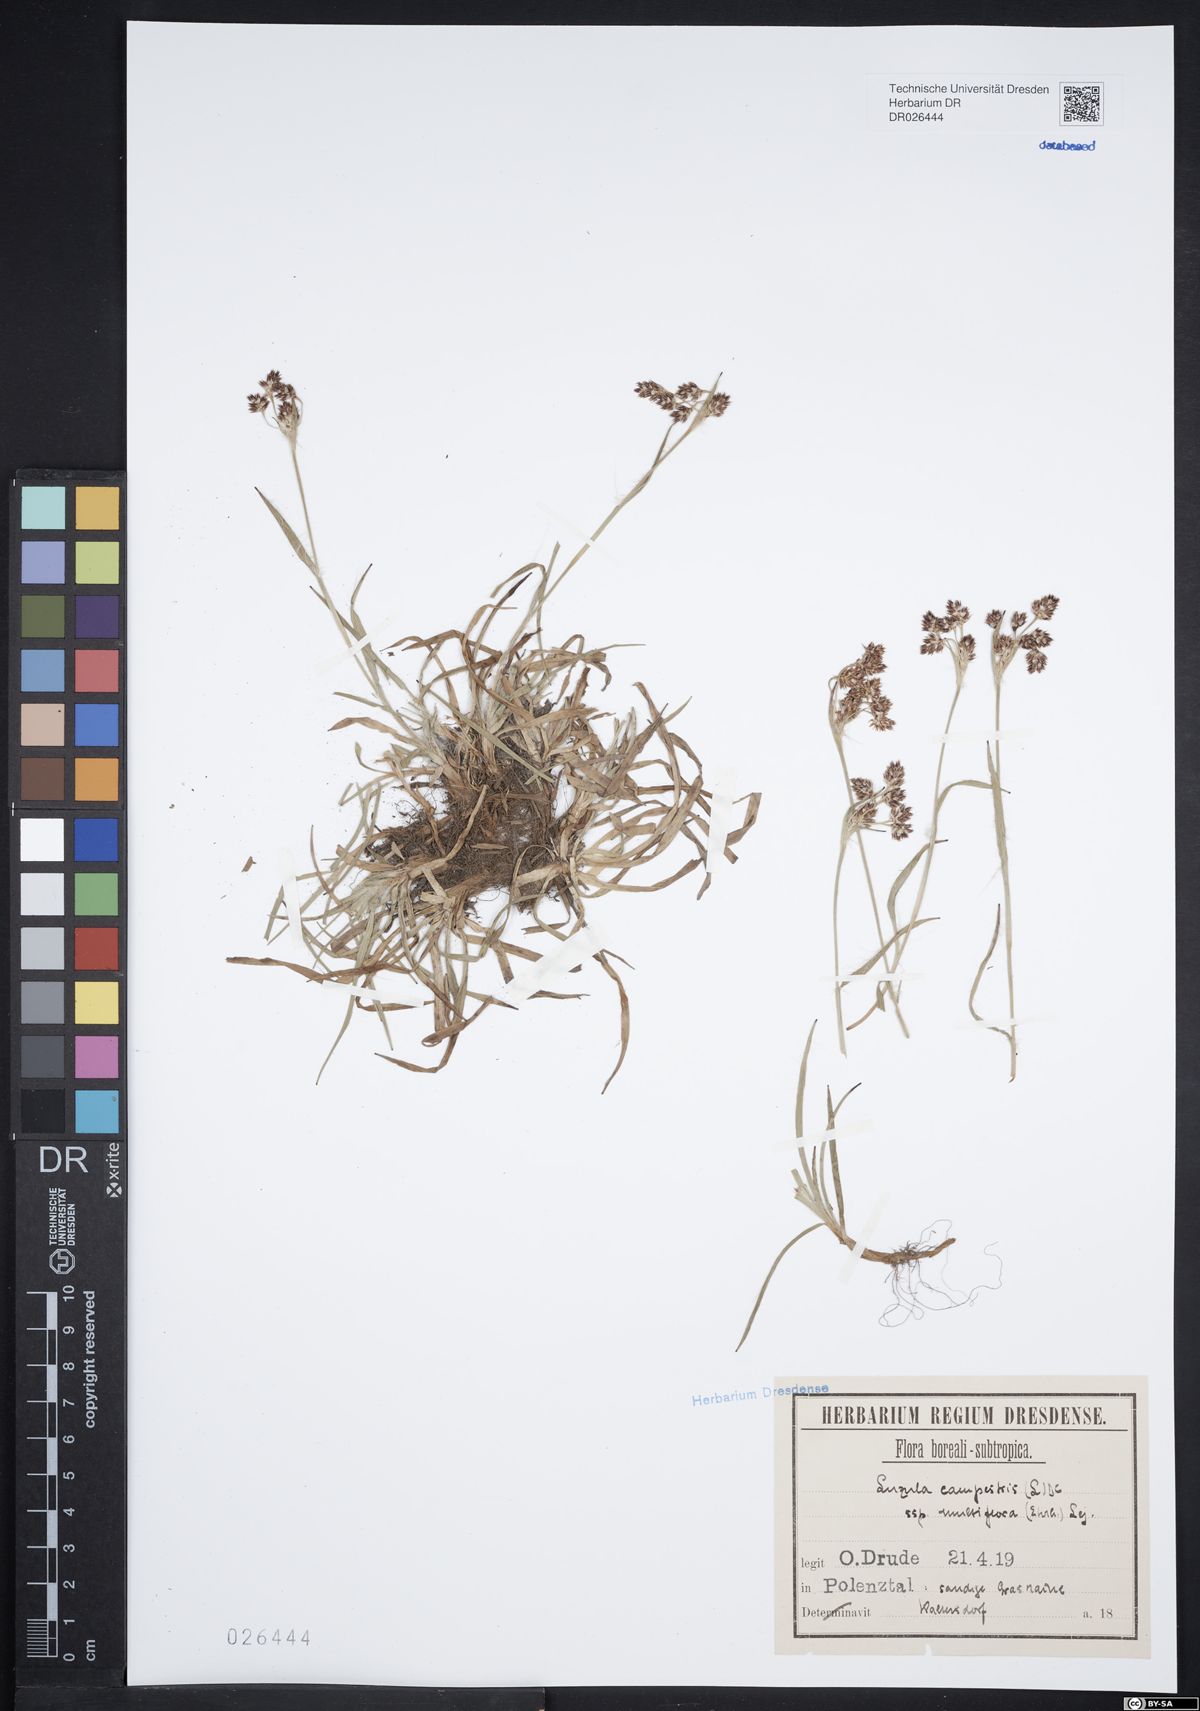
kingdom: Plantae
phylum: Tracheophyta
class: Liliopsida
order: Poales
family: Juncaceae
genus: Luzula
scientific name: Luzula multiflora
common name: Heath wood-rush
